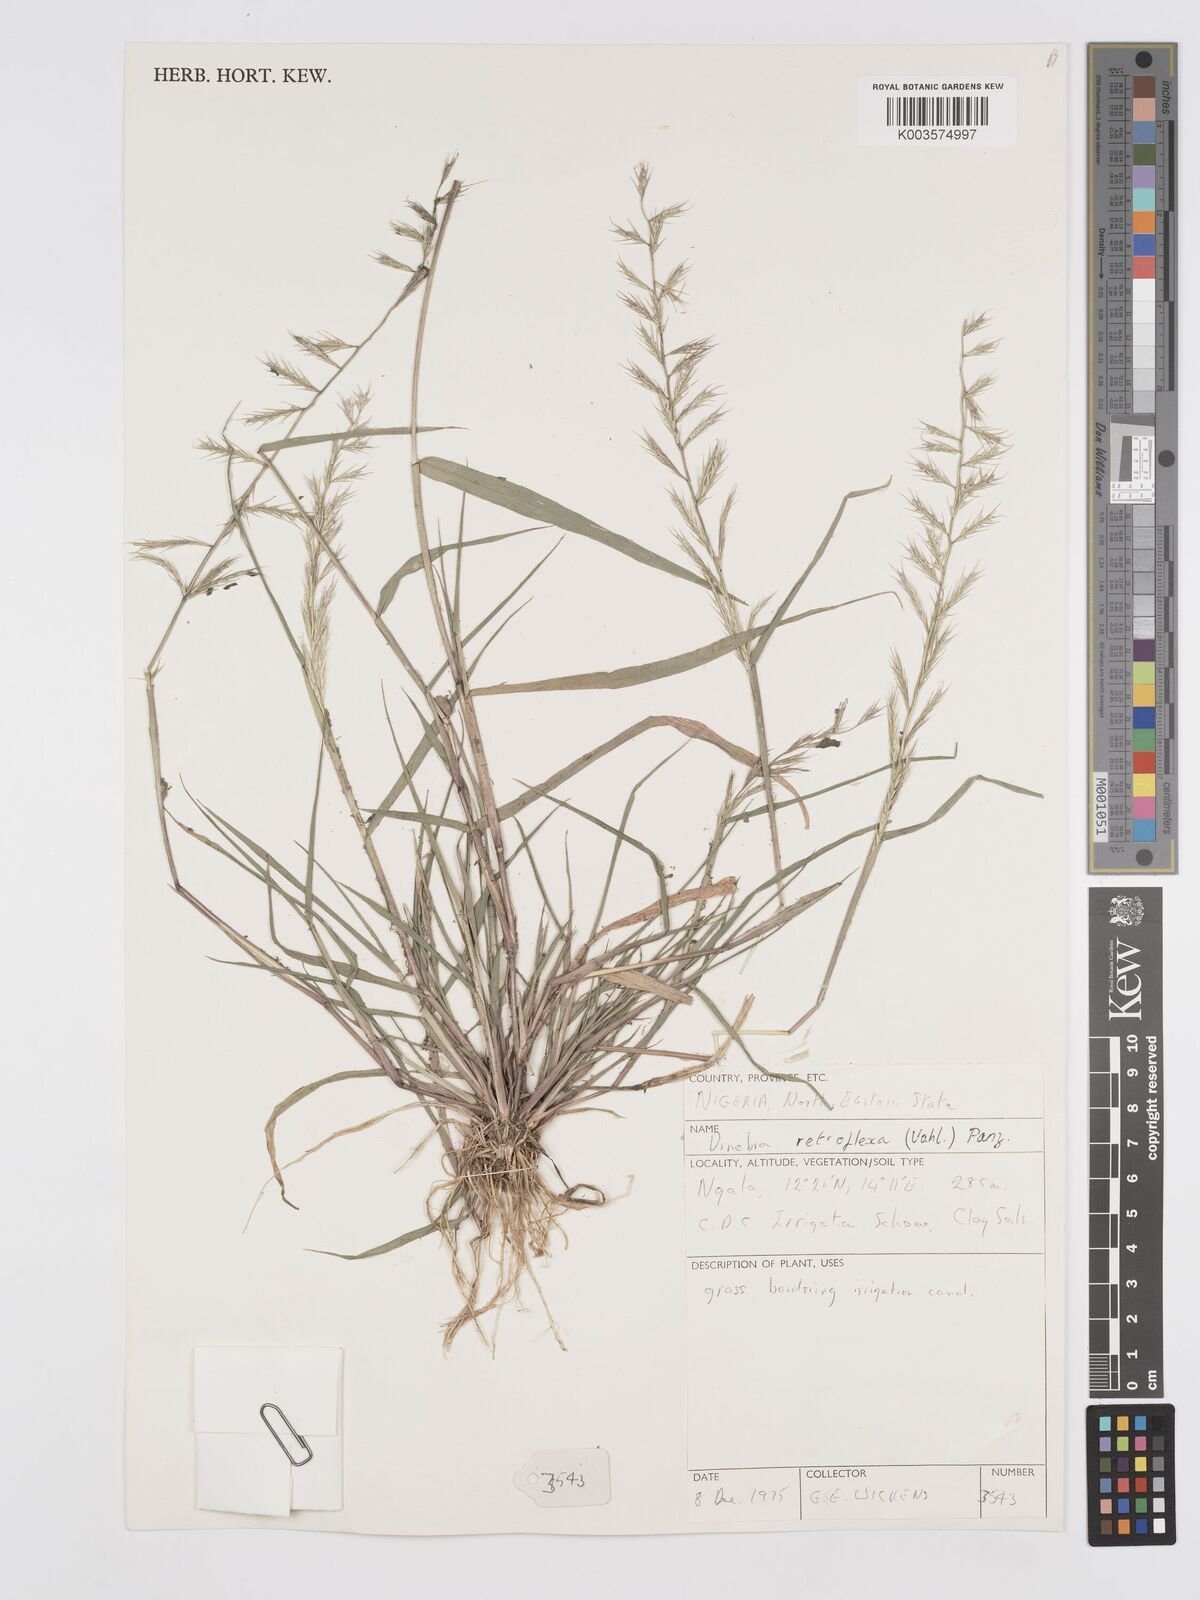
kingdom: Plantae
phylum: Tracheophyta
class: Liliopsida
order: Poales
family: Poaceae
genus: Dinebra
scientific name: Dinebra retroflexa
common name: Viper grass
